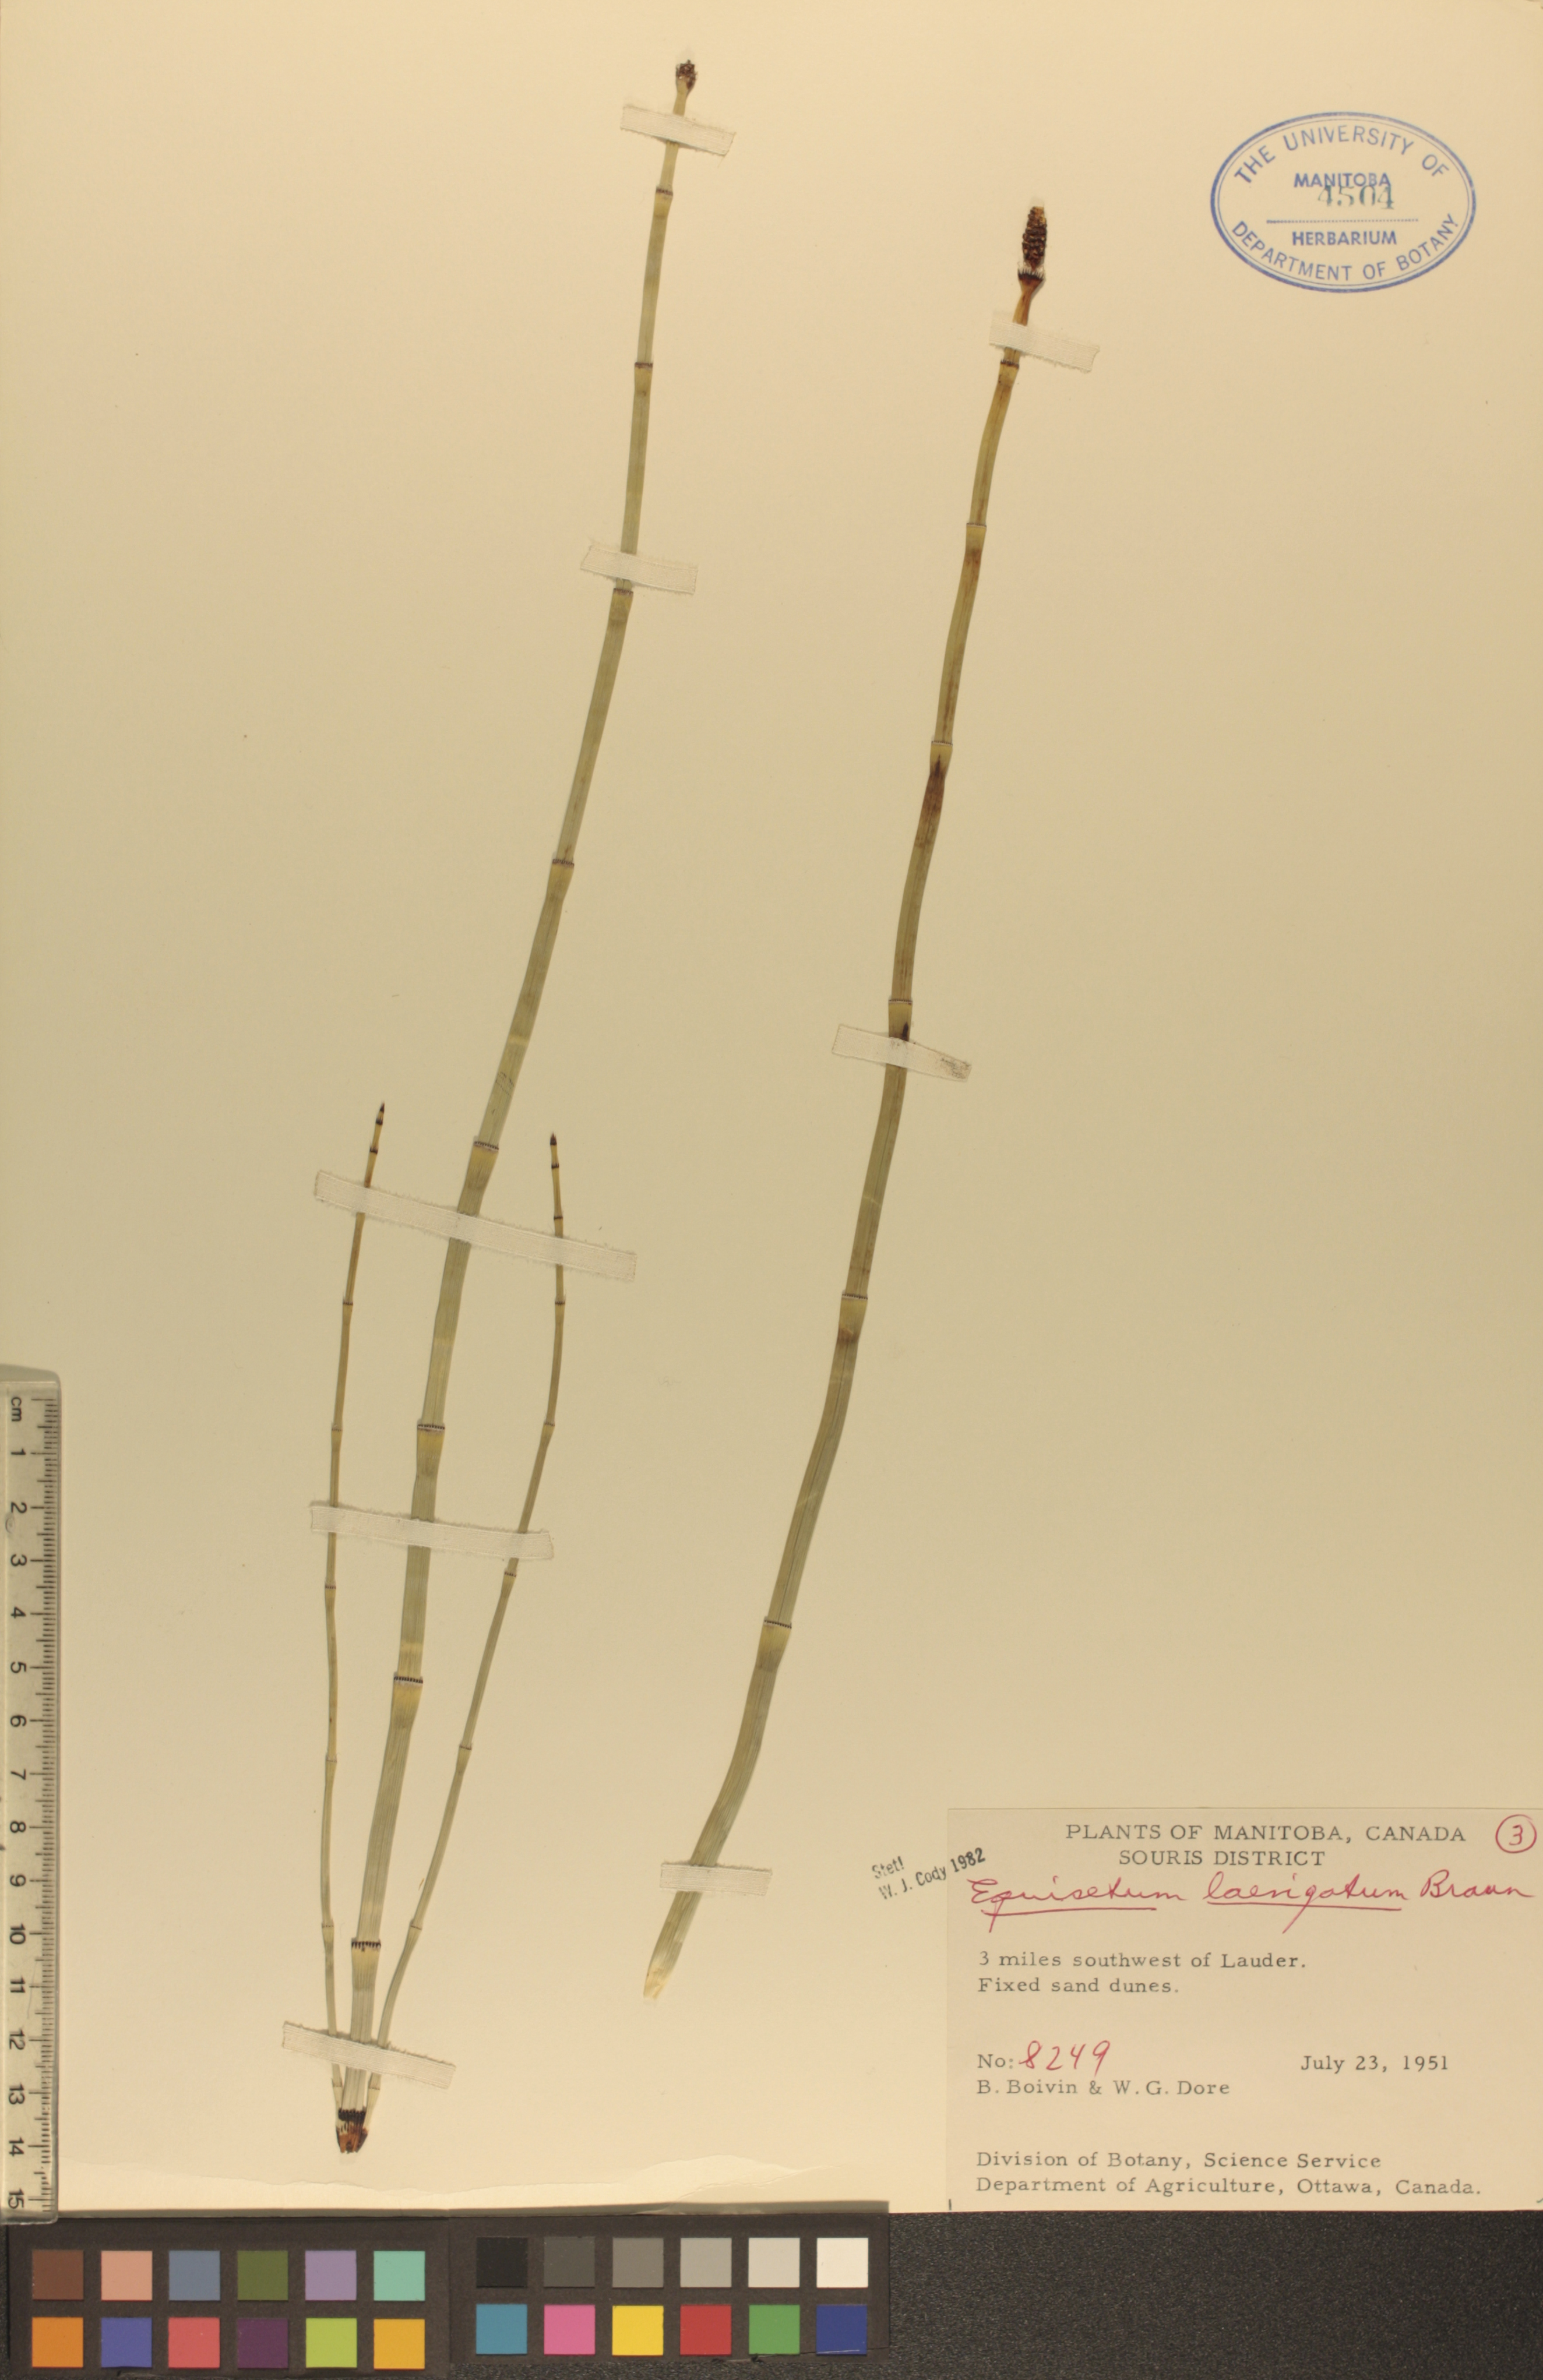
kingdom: Plantae
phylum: Tracheophyta
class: Polypodiopsida
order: Equisetales
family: Equisetaceae
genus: Equisetum
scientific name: Equisetum laevigatum
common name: Smooth scouring-rush
